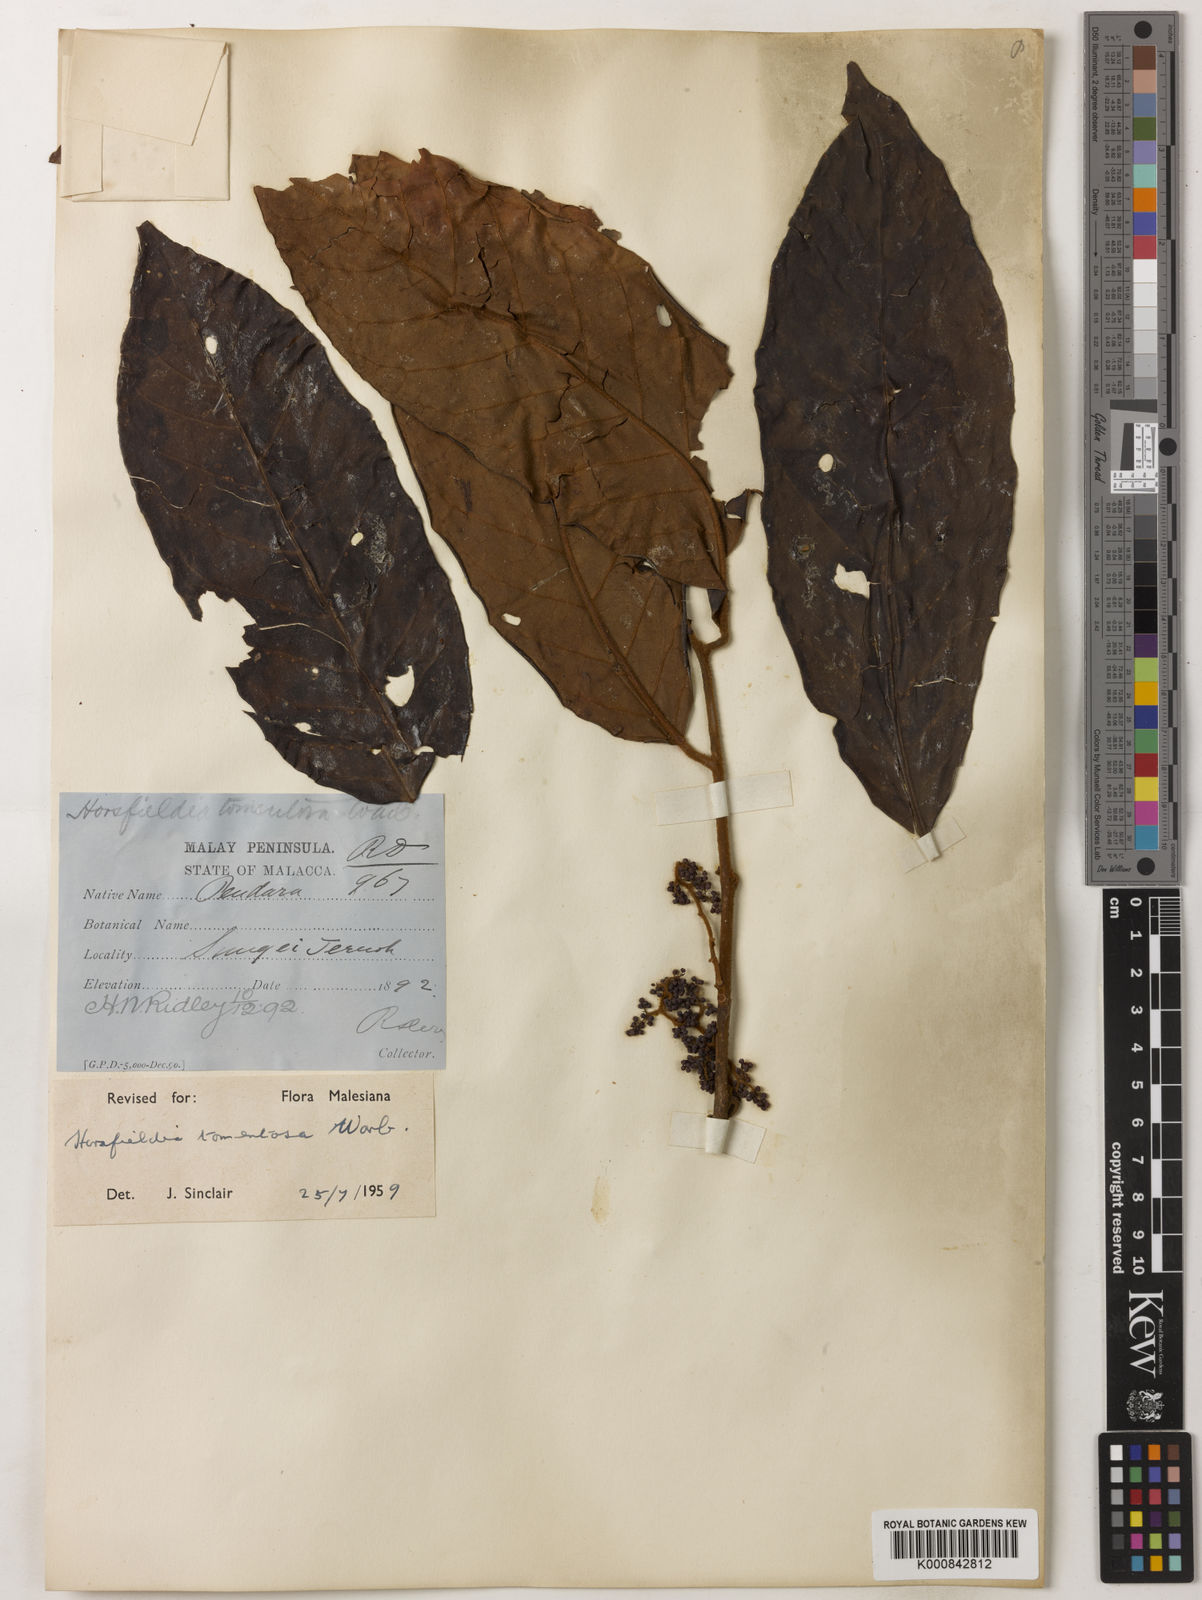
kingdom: Plantae
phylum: Tracheophyta
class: Magnoliopsida
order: Magnoliales
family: Myristicaceae
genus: Horsfieldia
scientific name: Horsfieldia tomentosa
